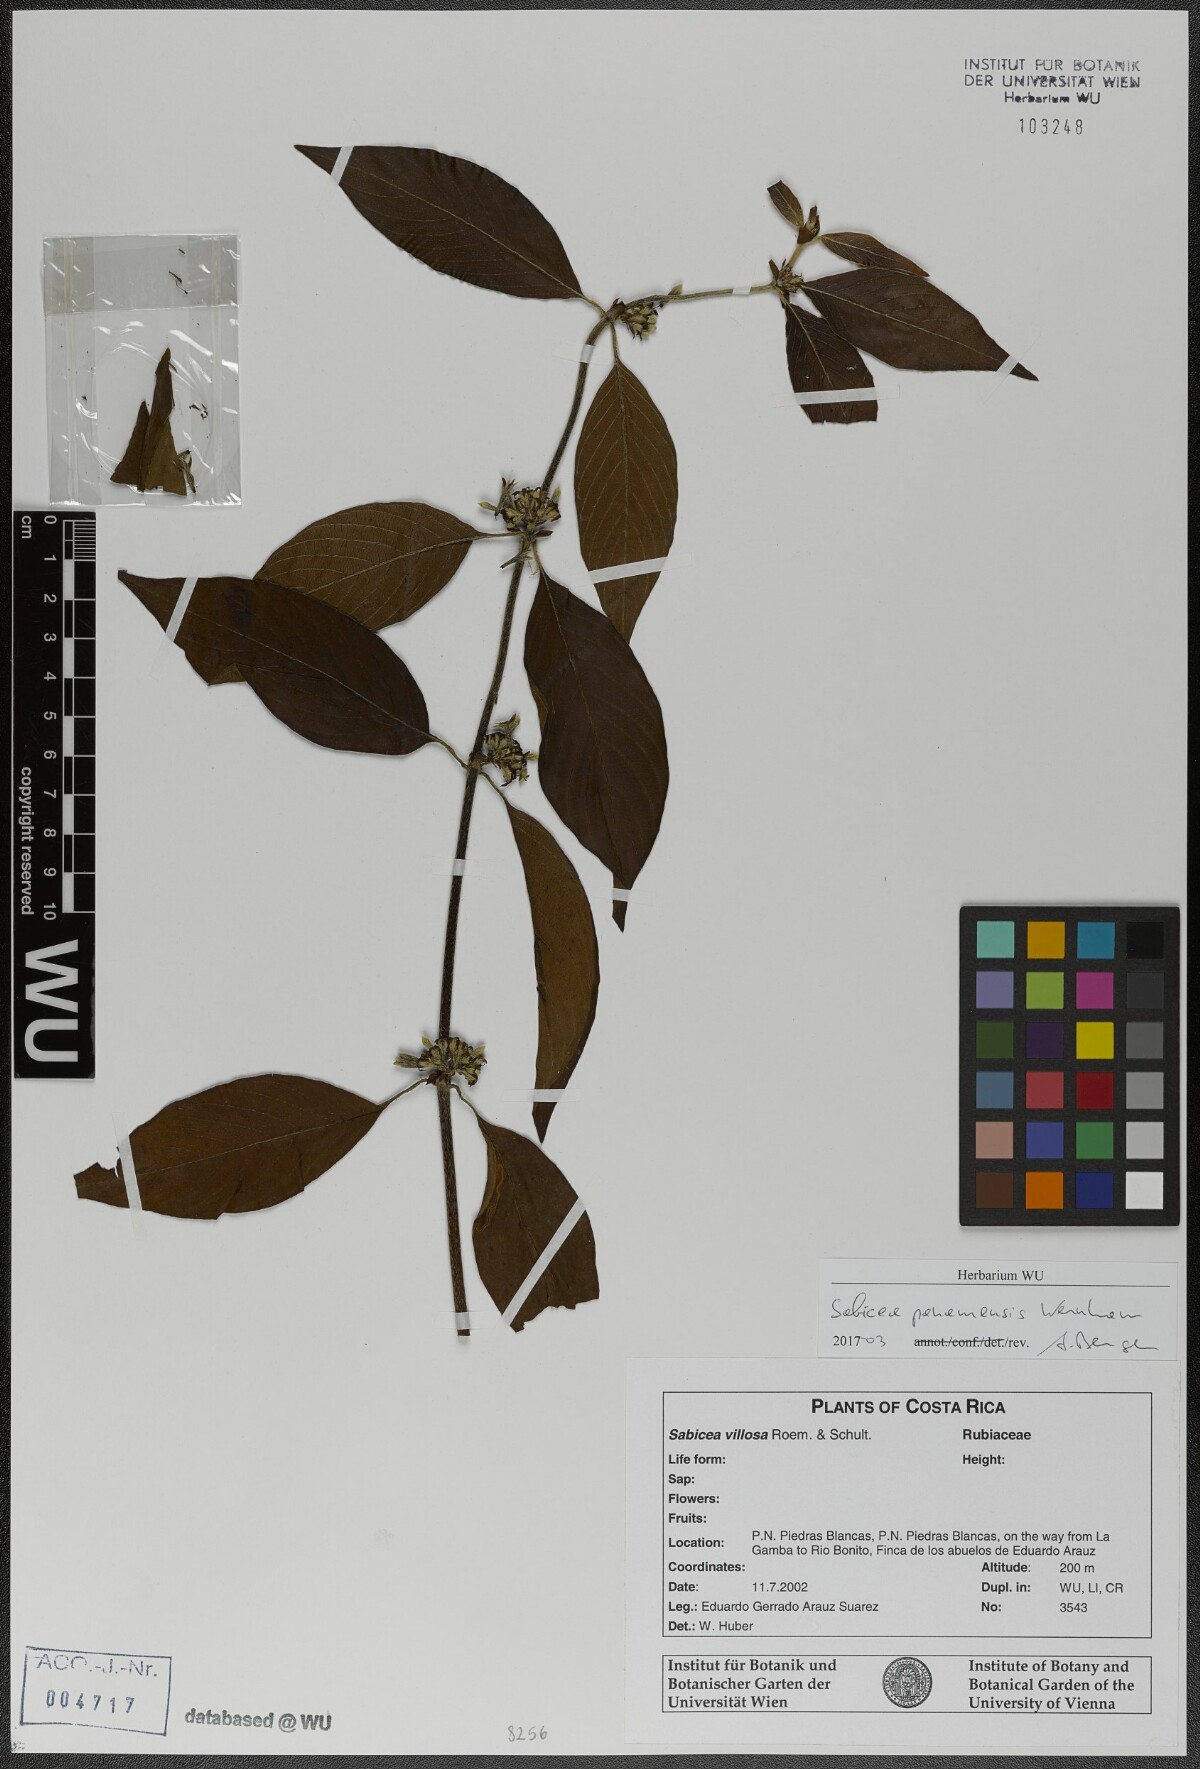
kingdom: Plantae
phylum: Tracheophyta
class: Magnoliopsida
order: Gentianales
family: Rubiaceae
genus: Sabicea
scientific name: Sabicea panamensis
